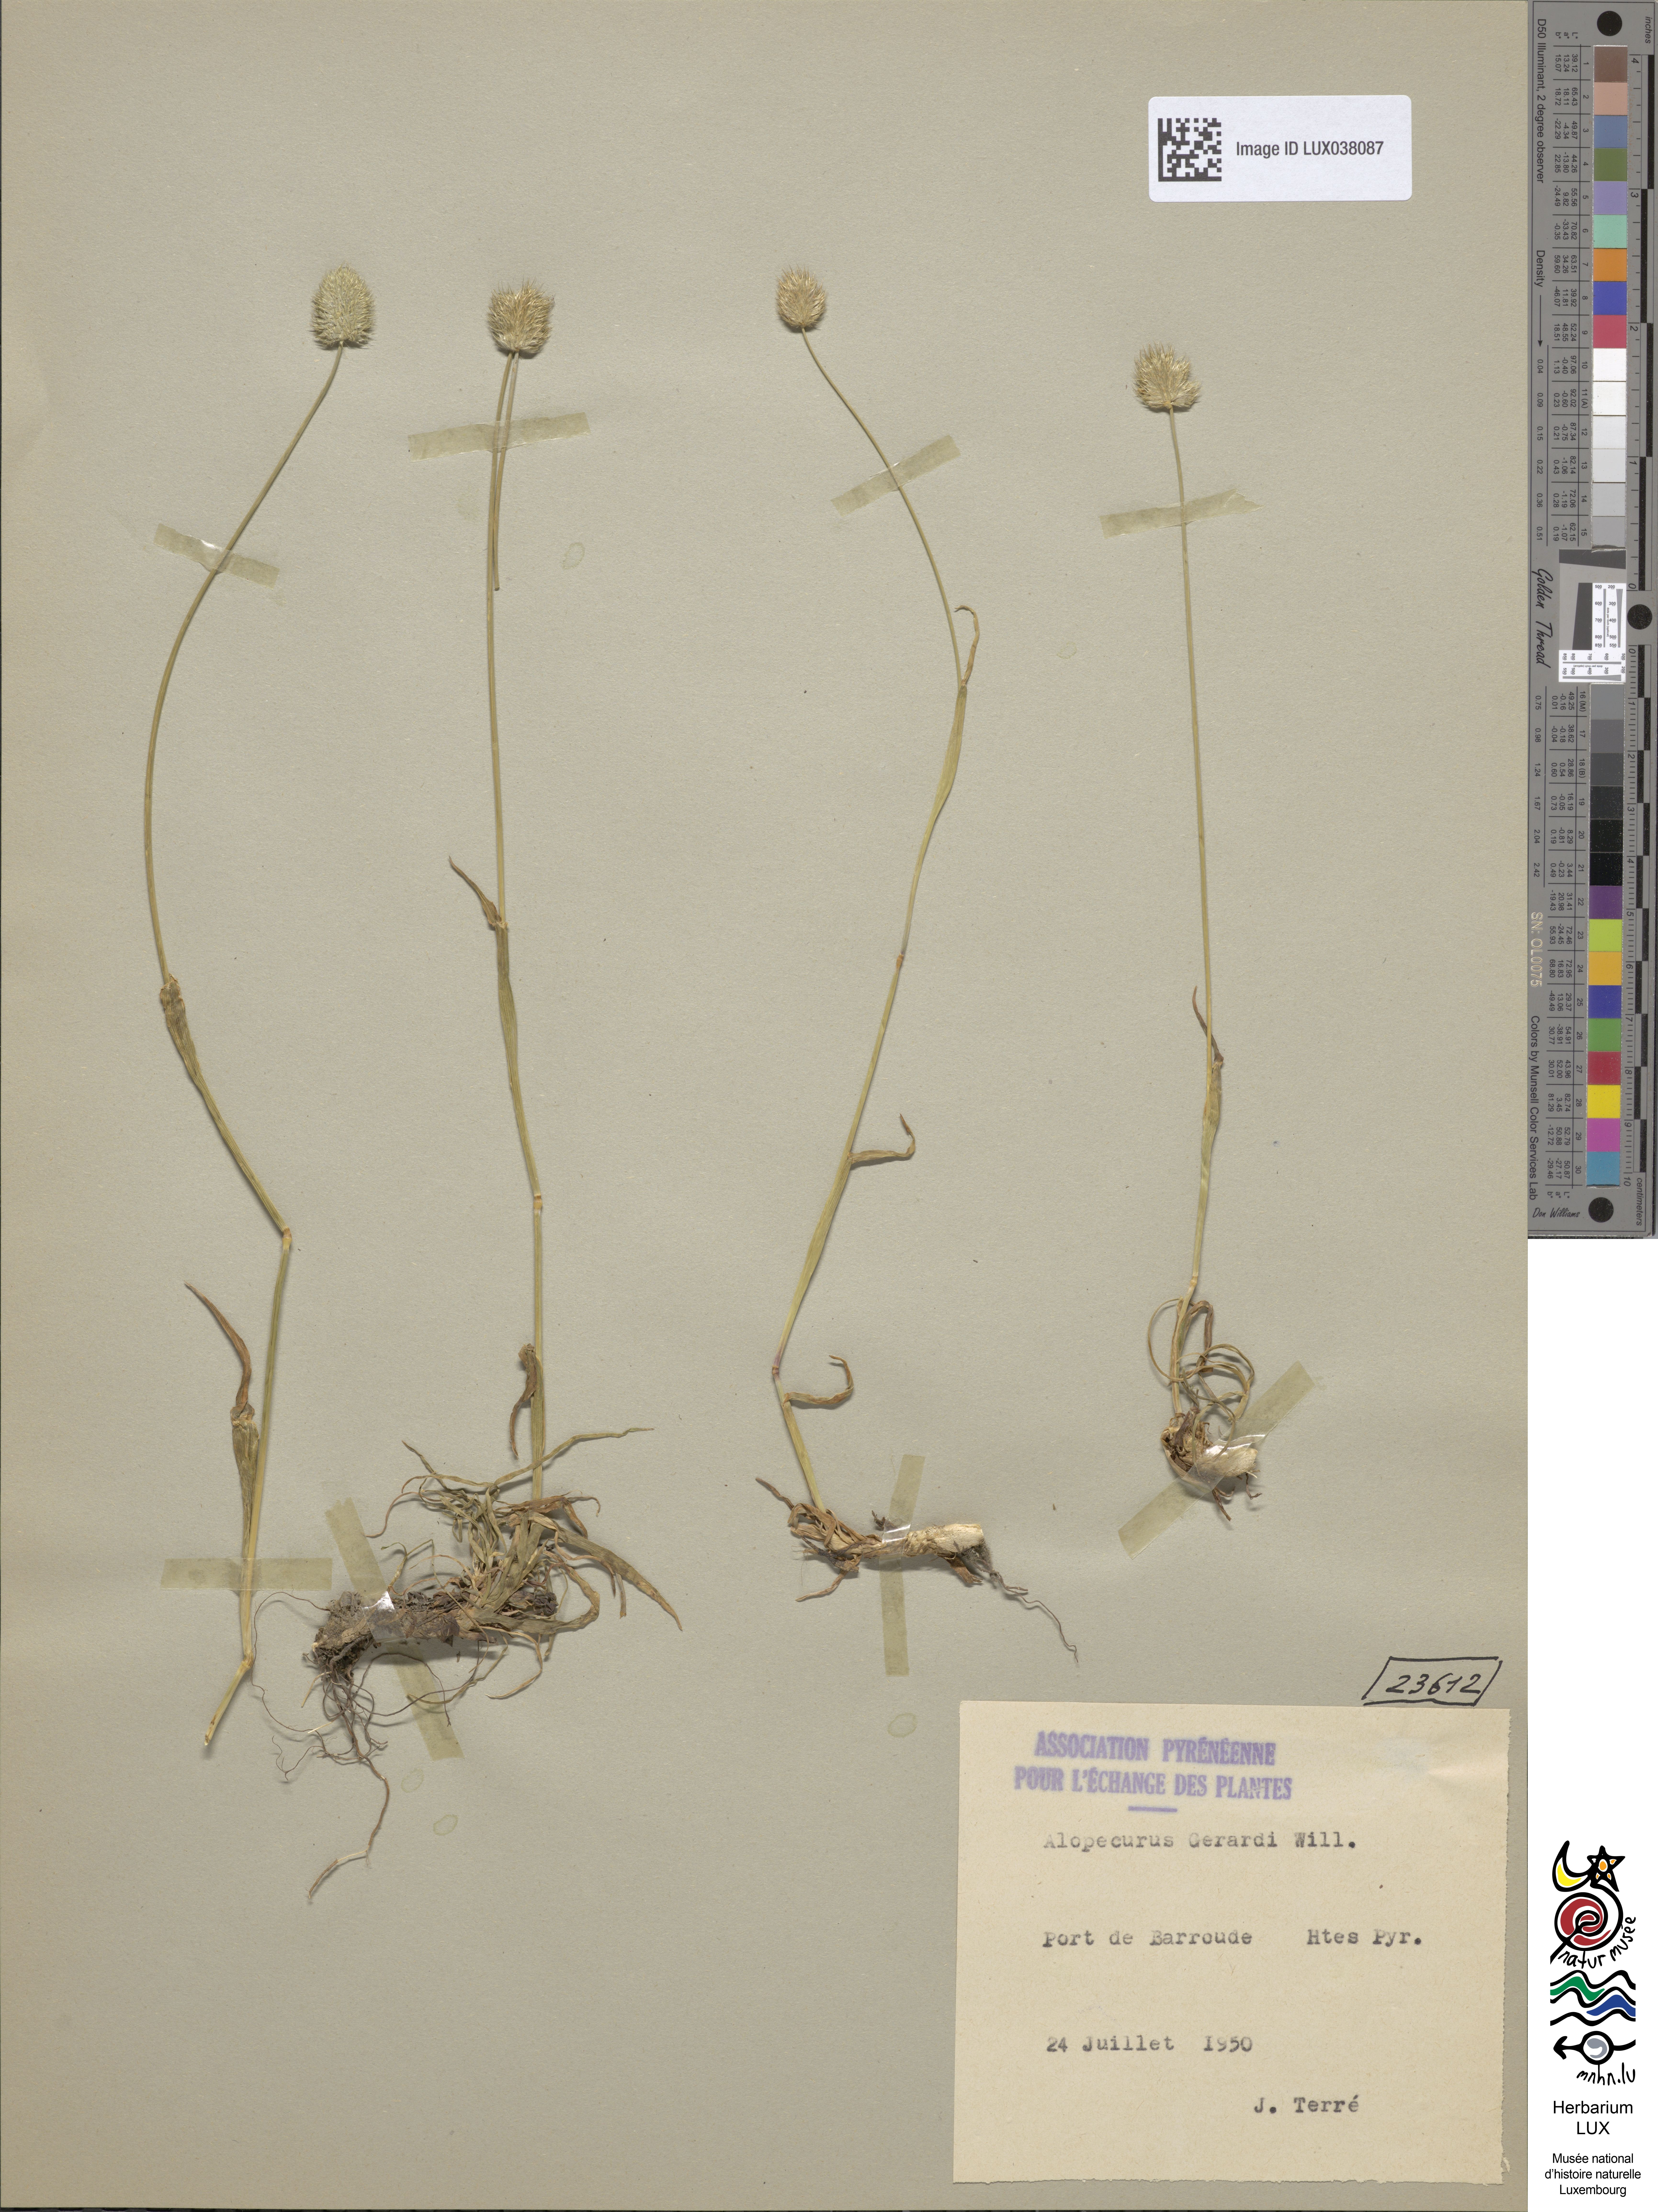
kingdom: Plantae
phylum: Tracheophyta
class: Liliopsida
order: Poales
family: Poaceae
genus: Alopecurus
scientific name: Alopecurus gerardii
